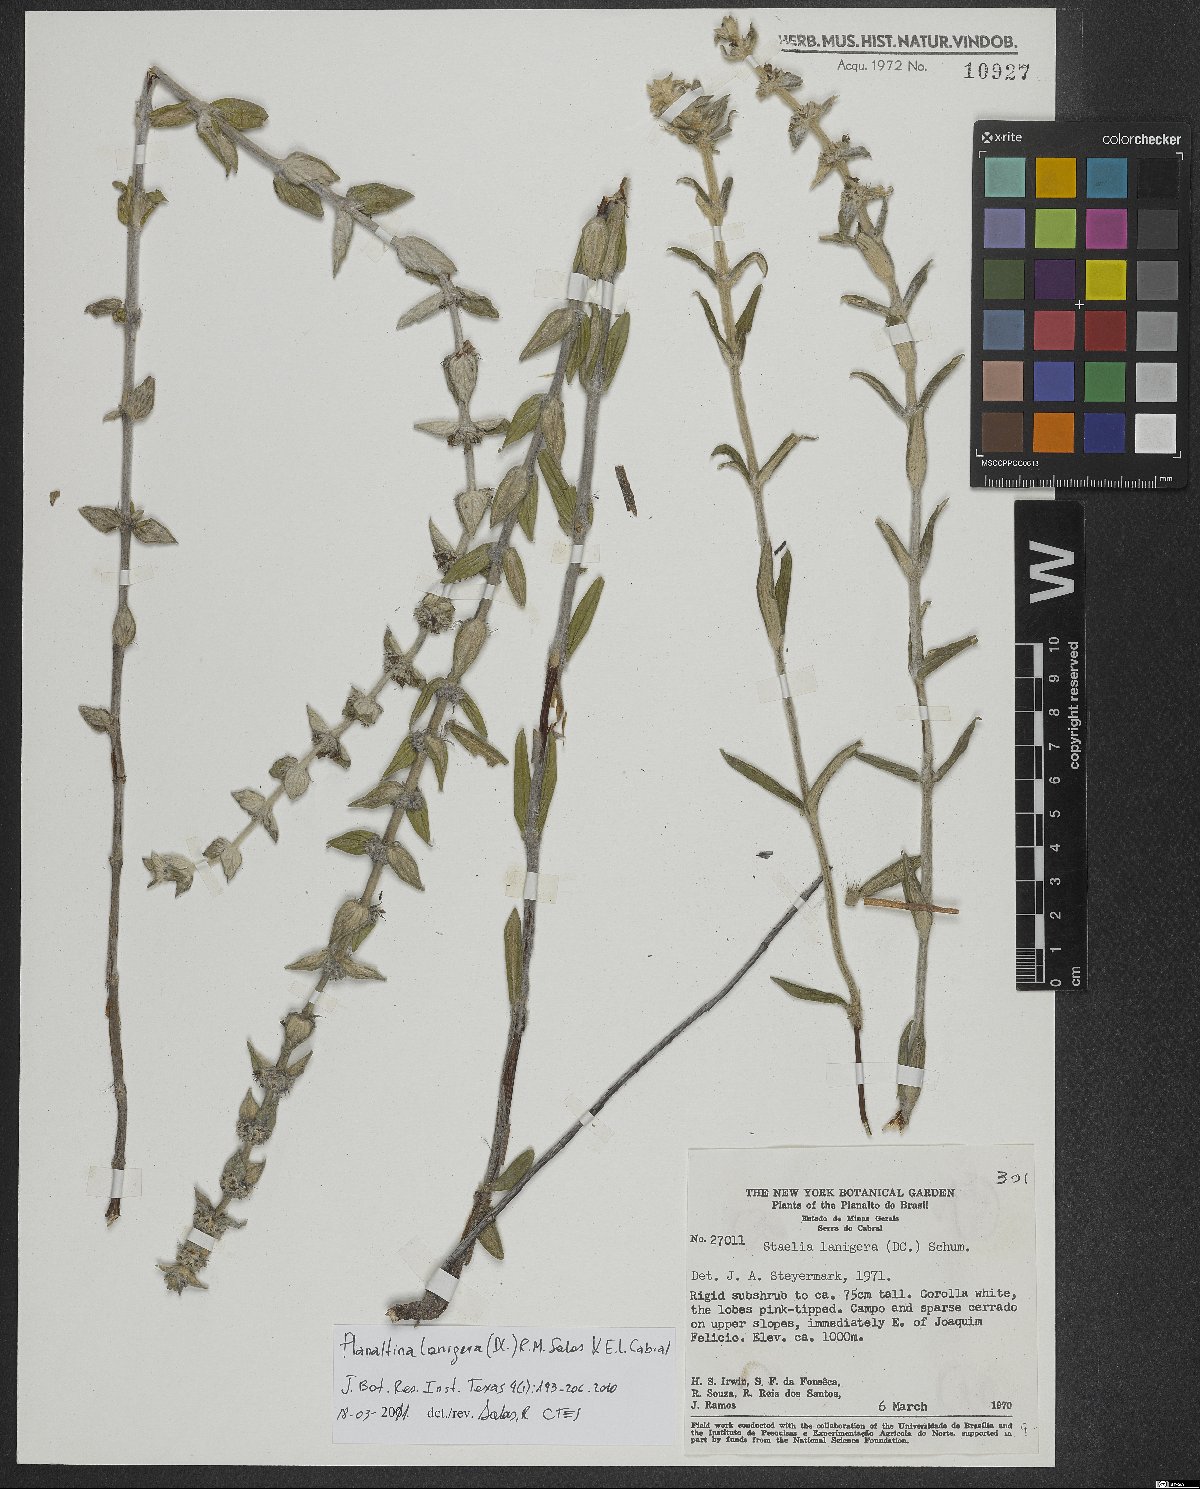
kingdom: Plantae
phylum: Tracheophyta
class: Magnoliopsida
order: Gentianales
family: Rubiaceae
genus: Planaltina
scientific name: Planaltina lanigera
